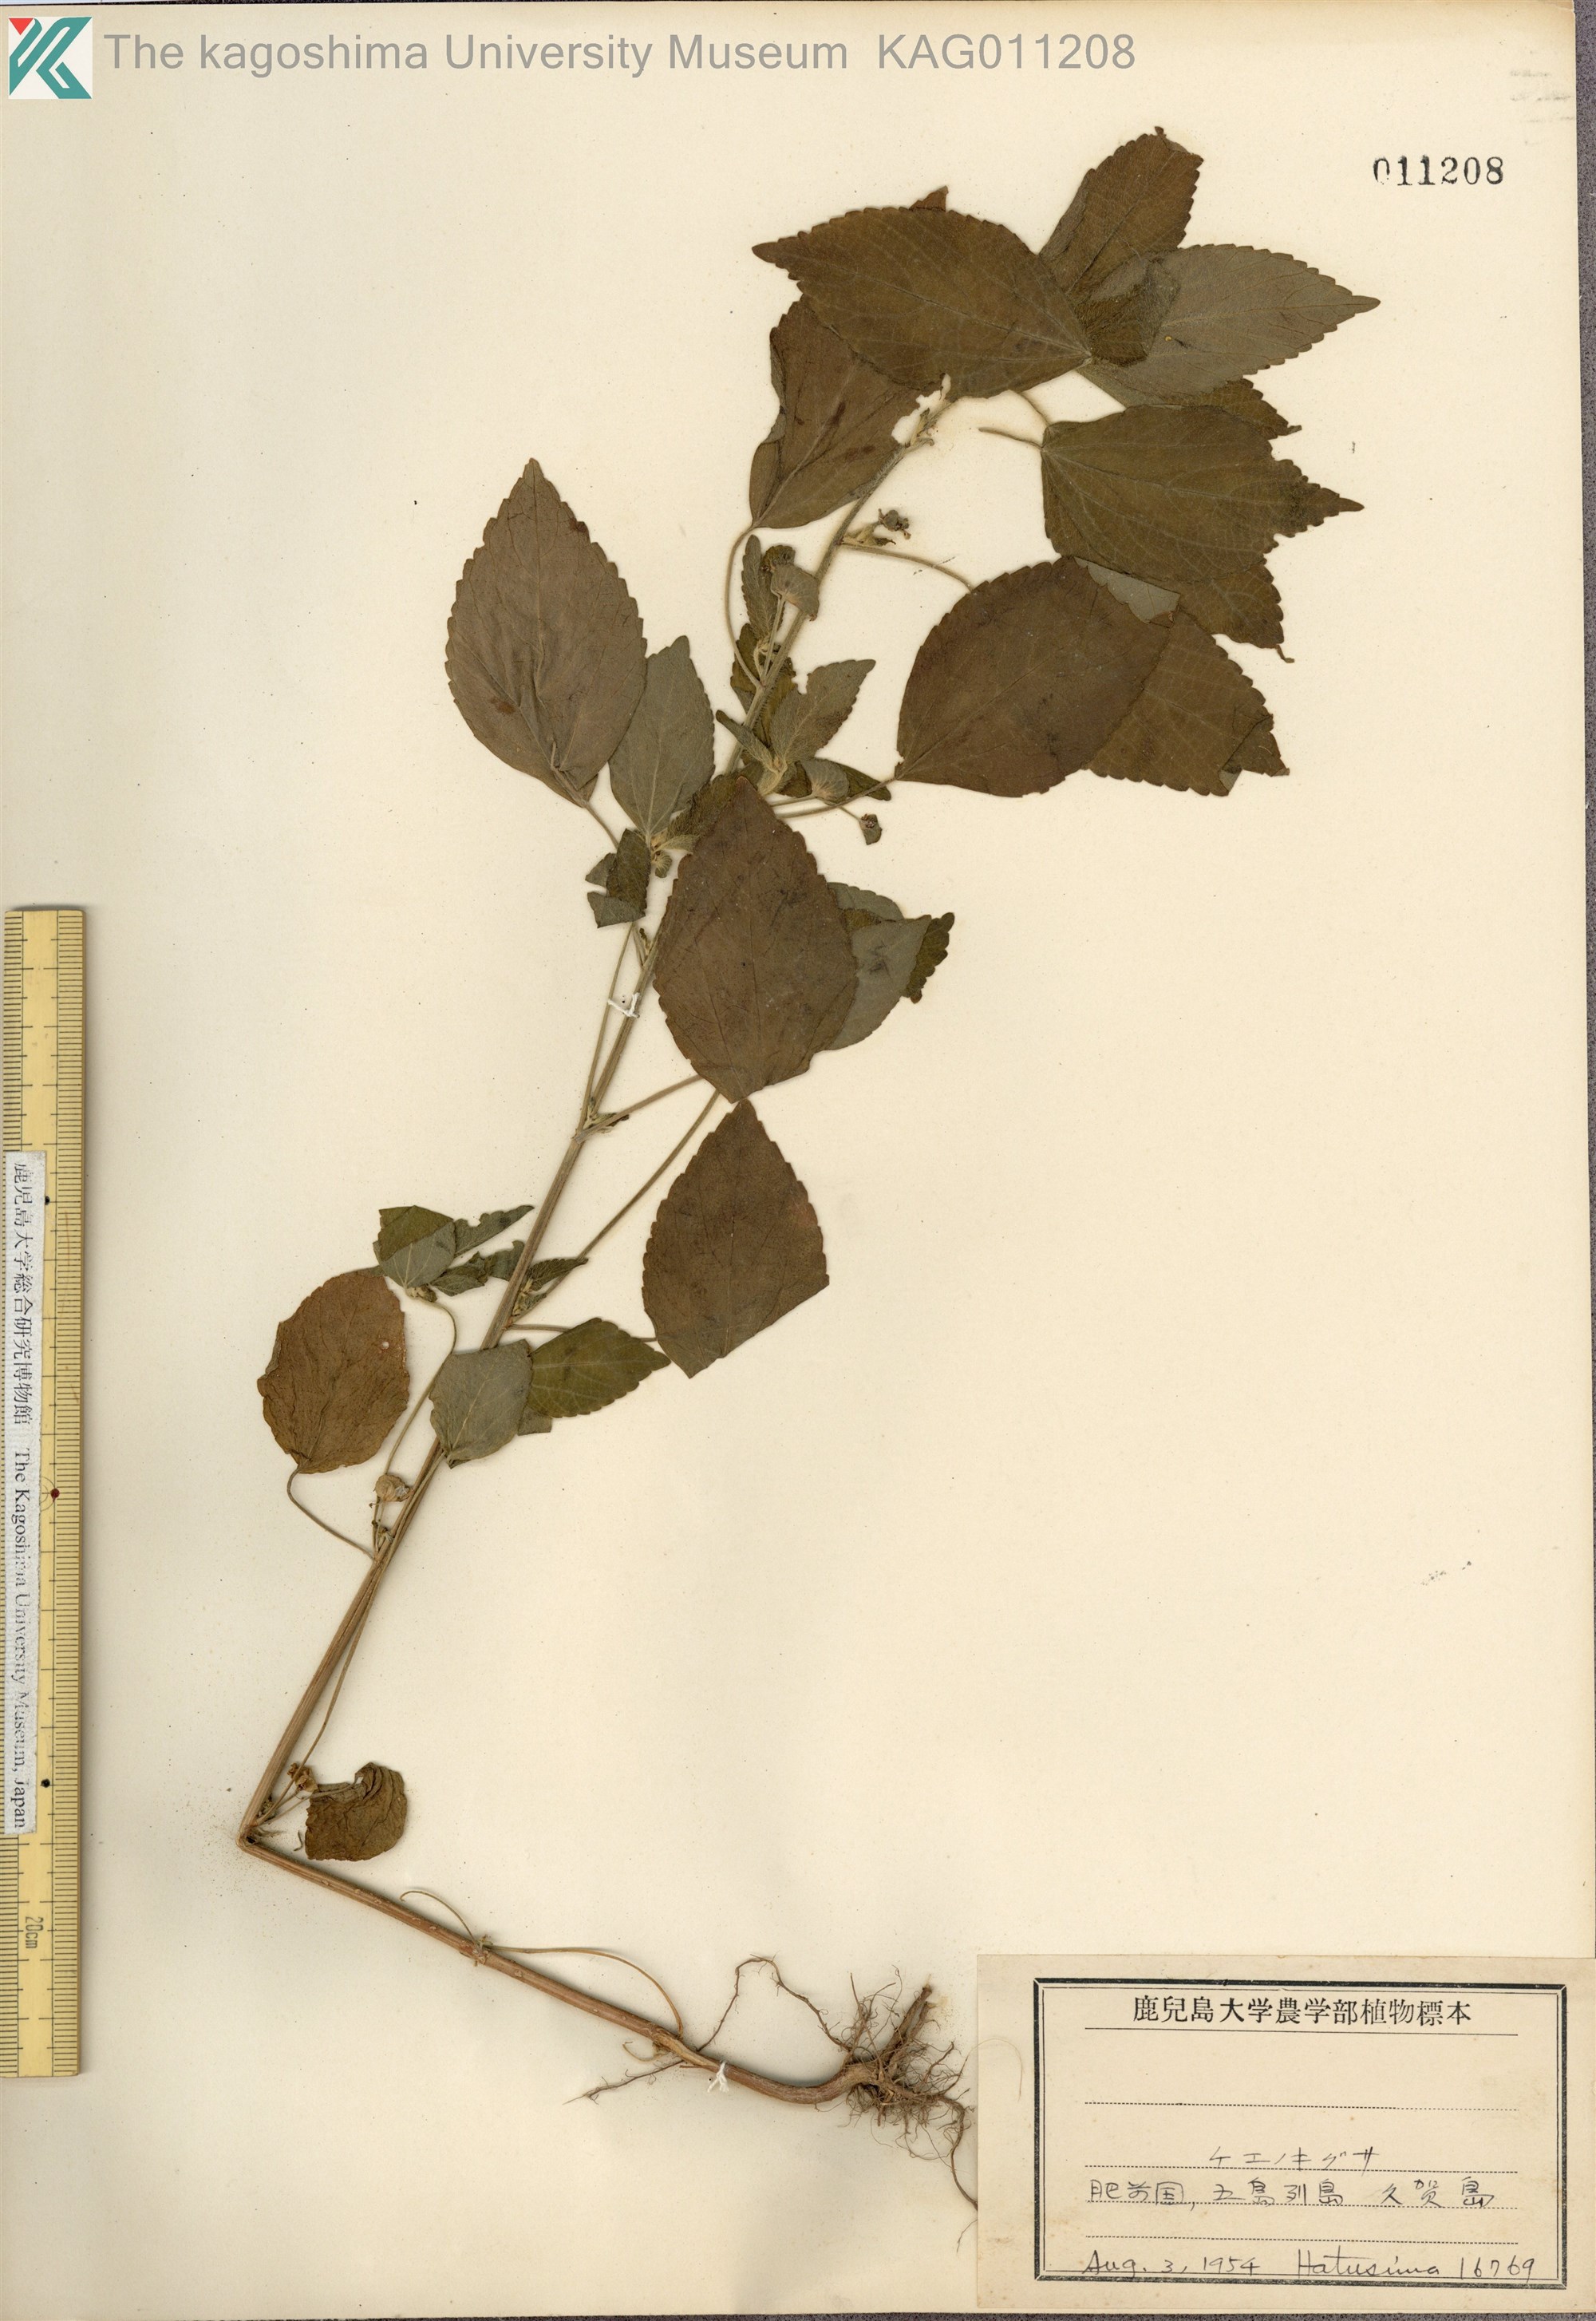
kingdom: Plantae
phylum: Tracheophyta
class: Magnoliopsida
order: Malpighiales
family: Euphorbiaceae
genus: Acalypha
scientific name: Acalypha australis
